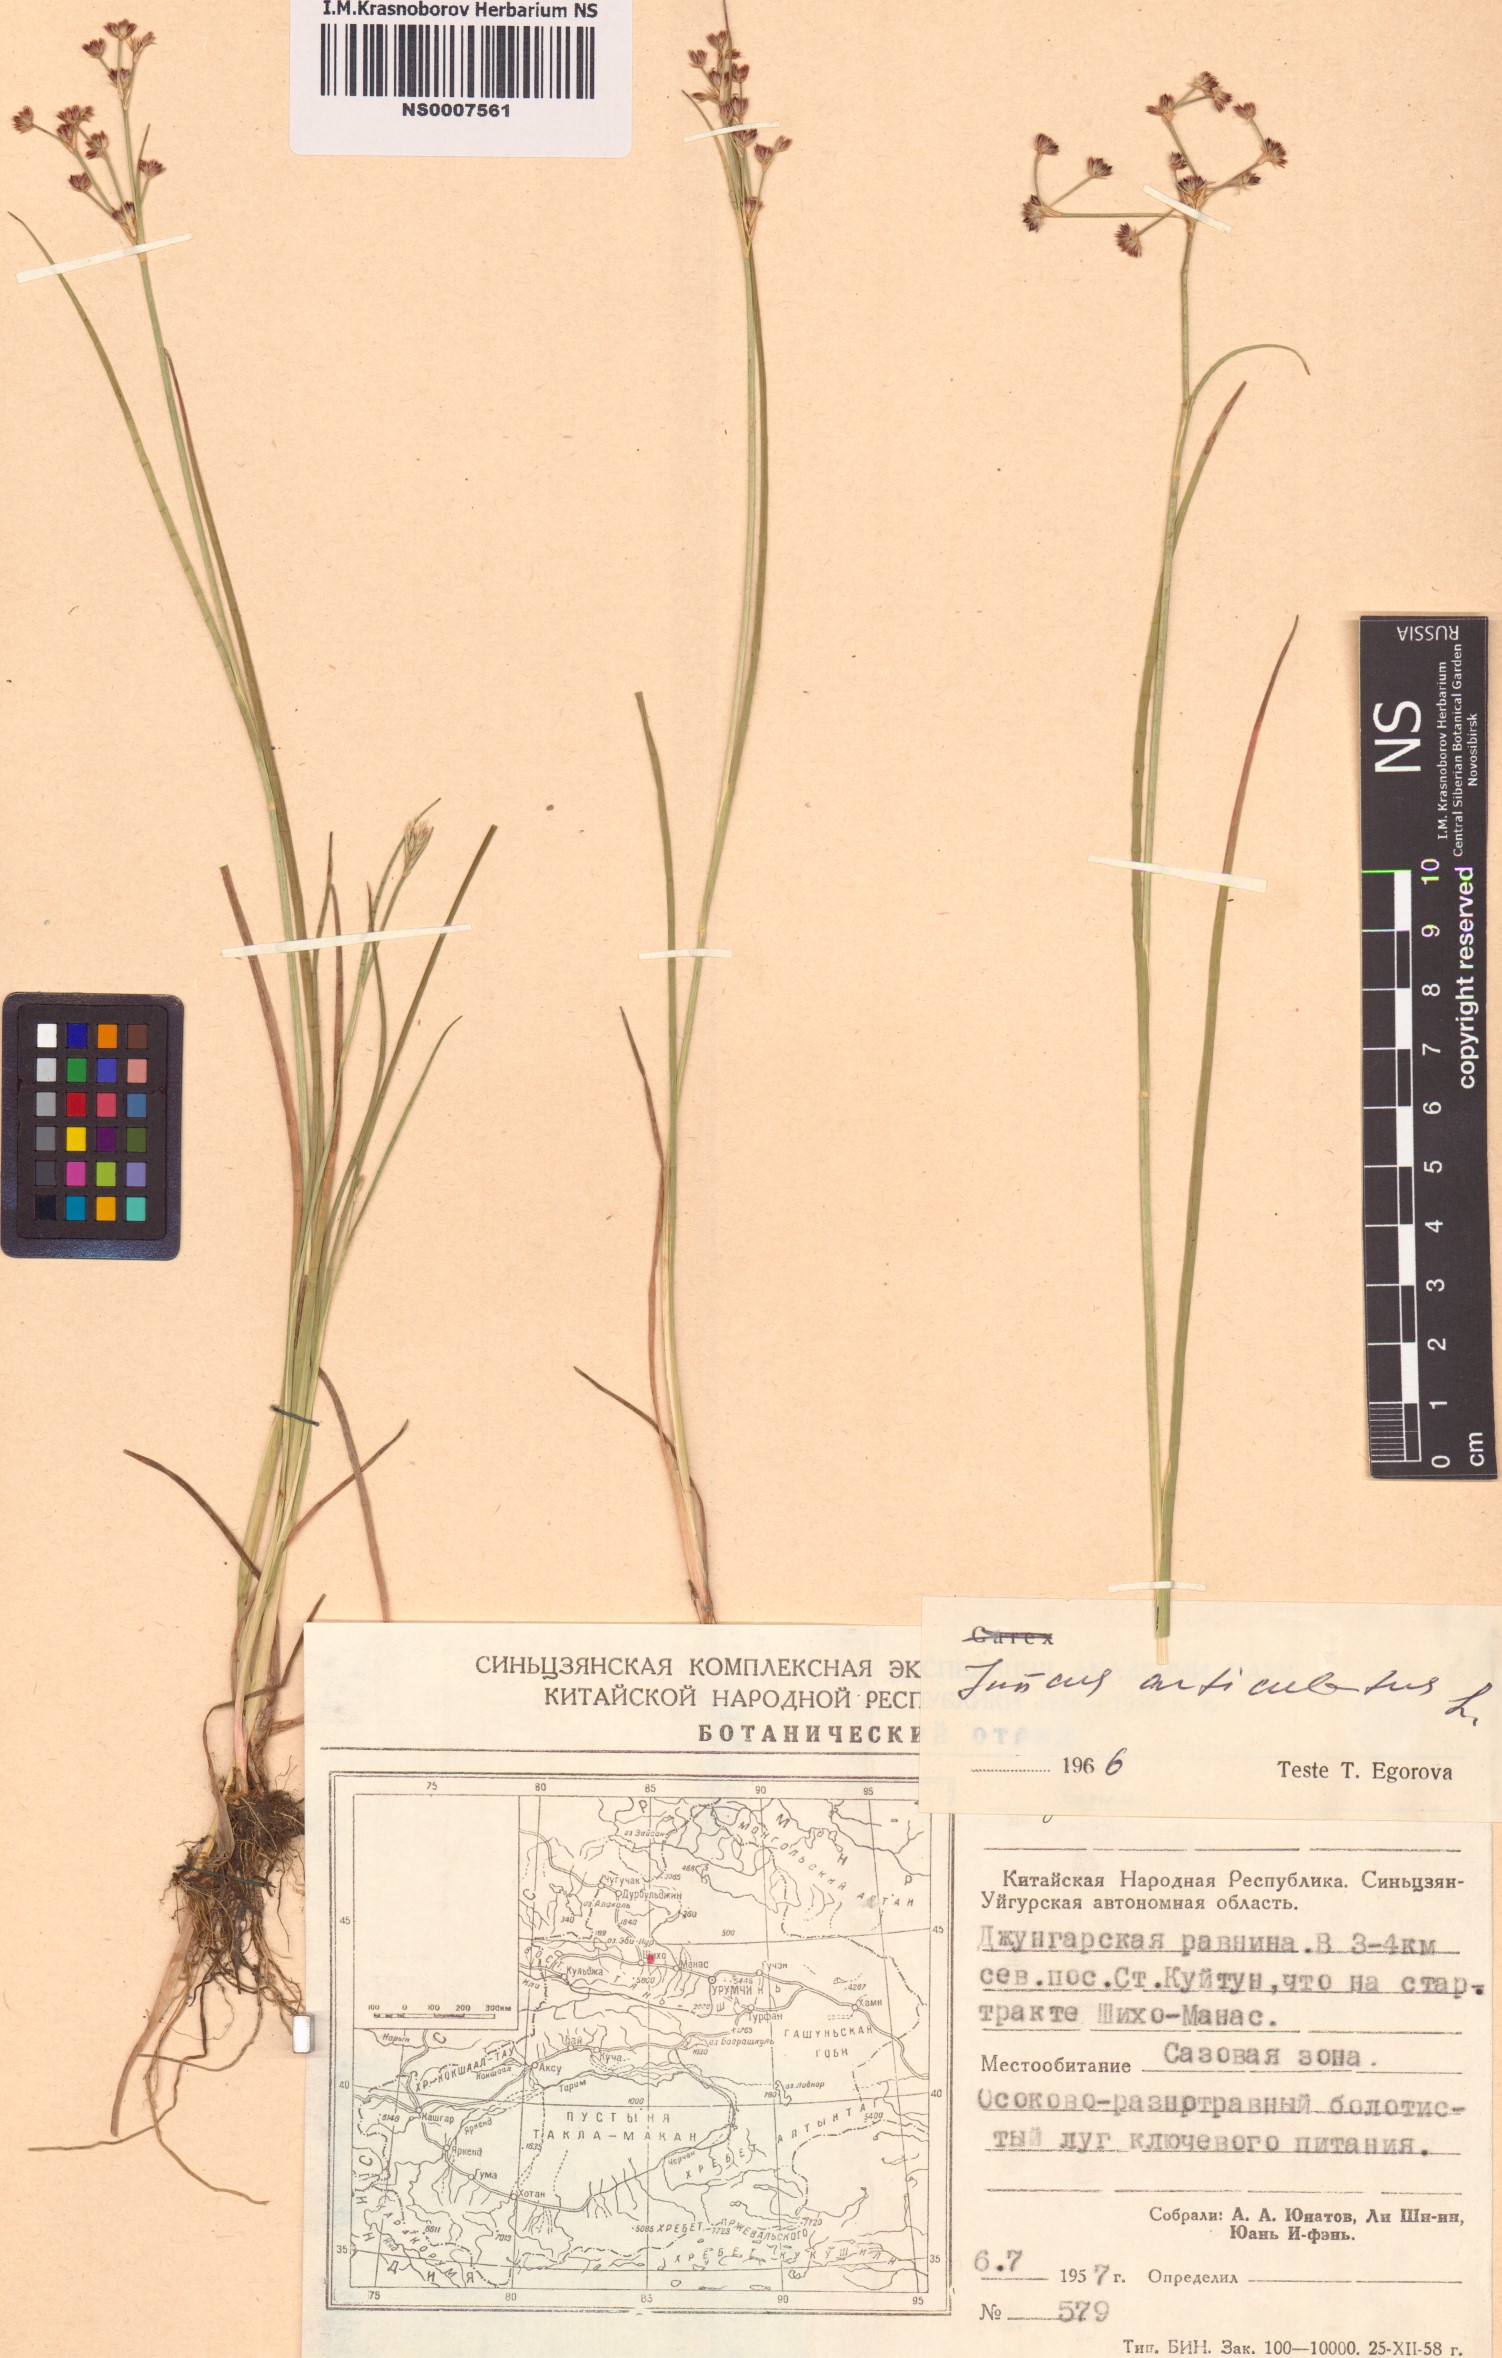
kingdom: Plantae
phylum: Tracheophyta
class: Liliopsida
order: Poales
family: Juncaceae
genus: Juncus
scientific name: Juncus articulatus
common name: Jointed rush
